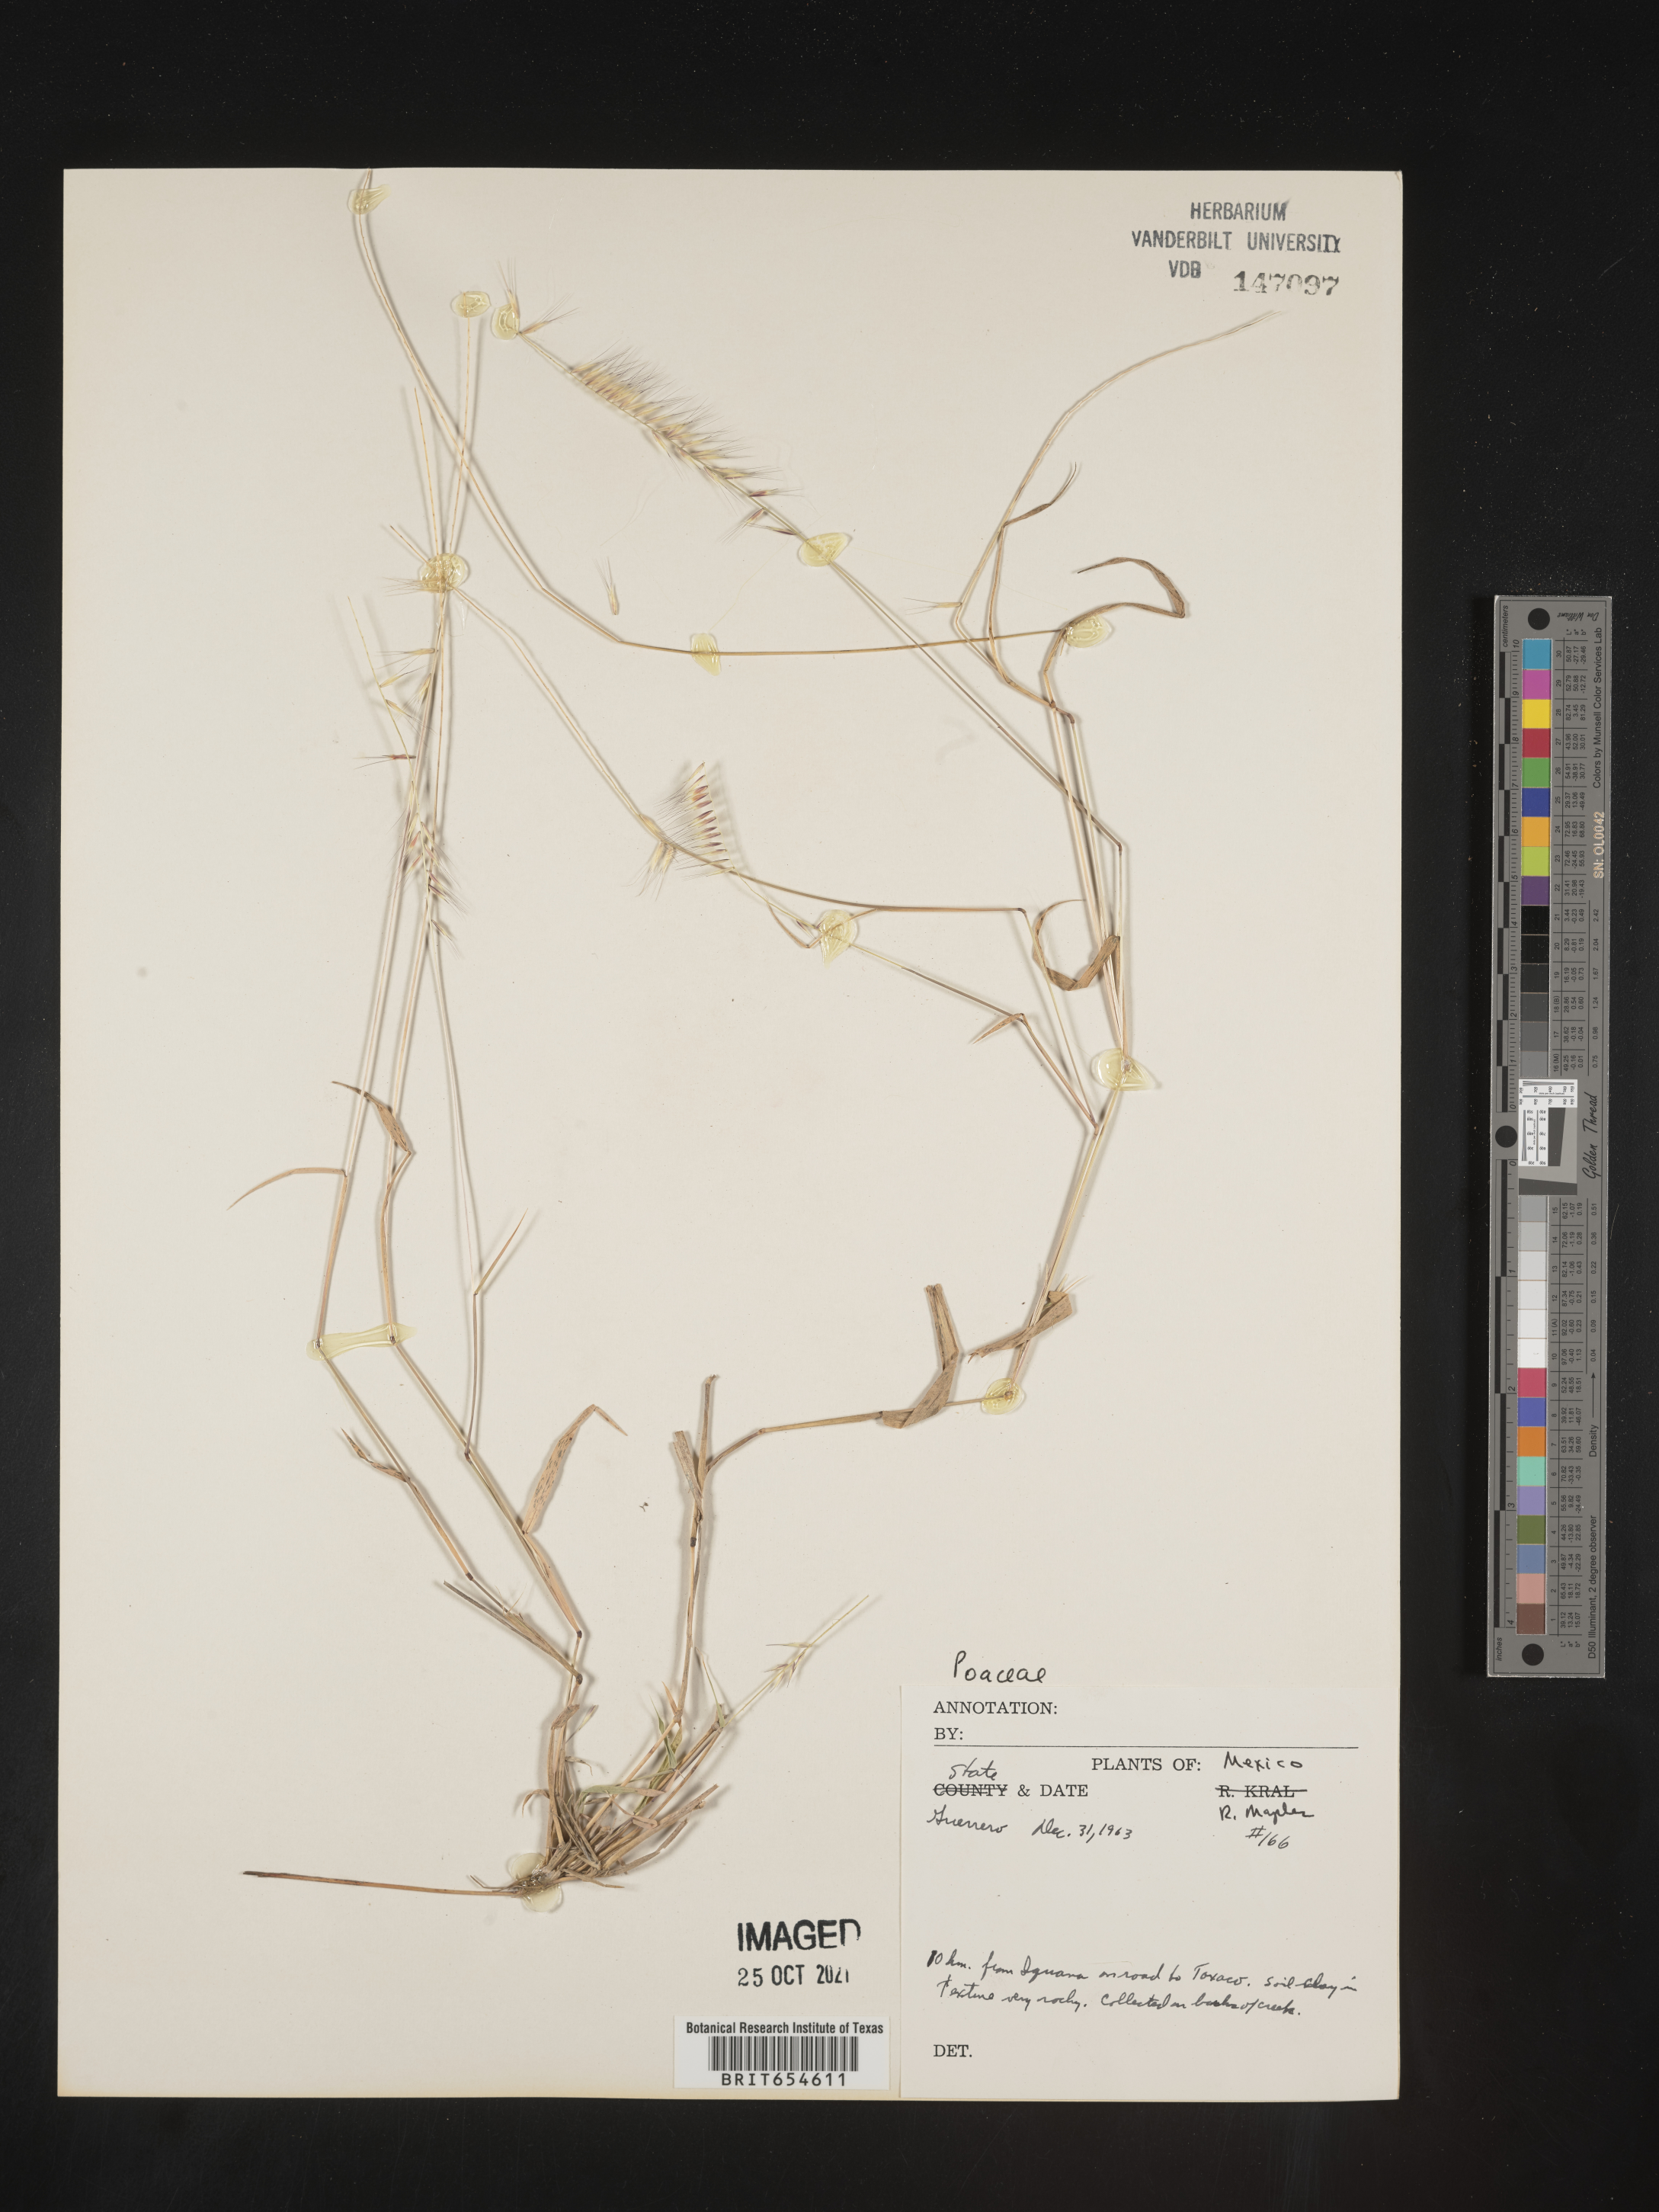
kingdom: Plantae
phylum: Tracheophyta
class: Liliopsida
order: Poales
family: Poaceae
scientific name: Poaceae
